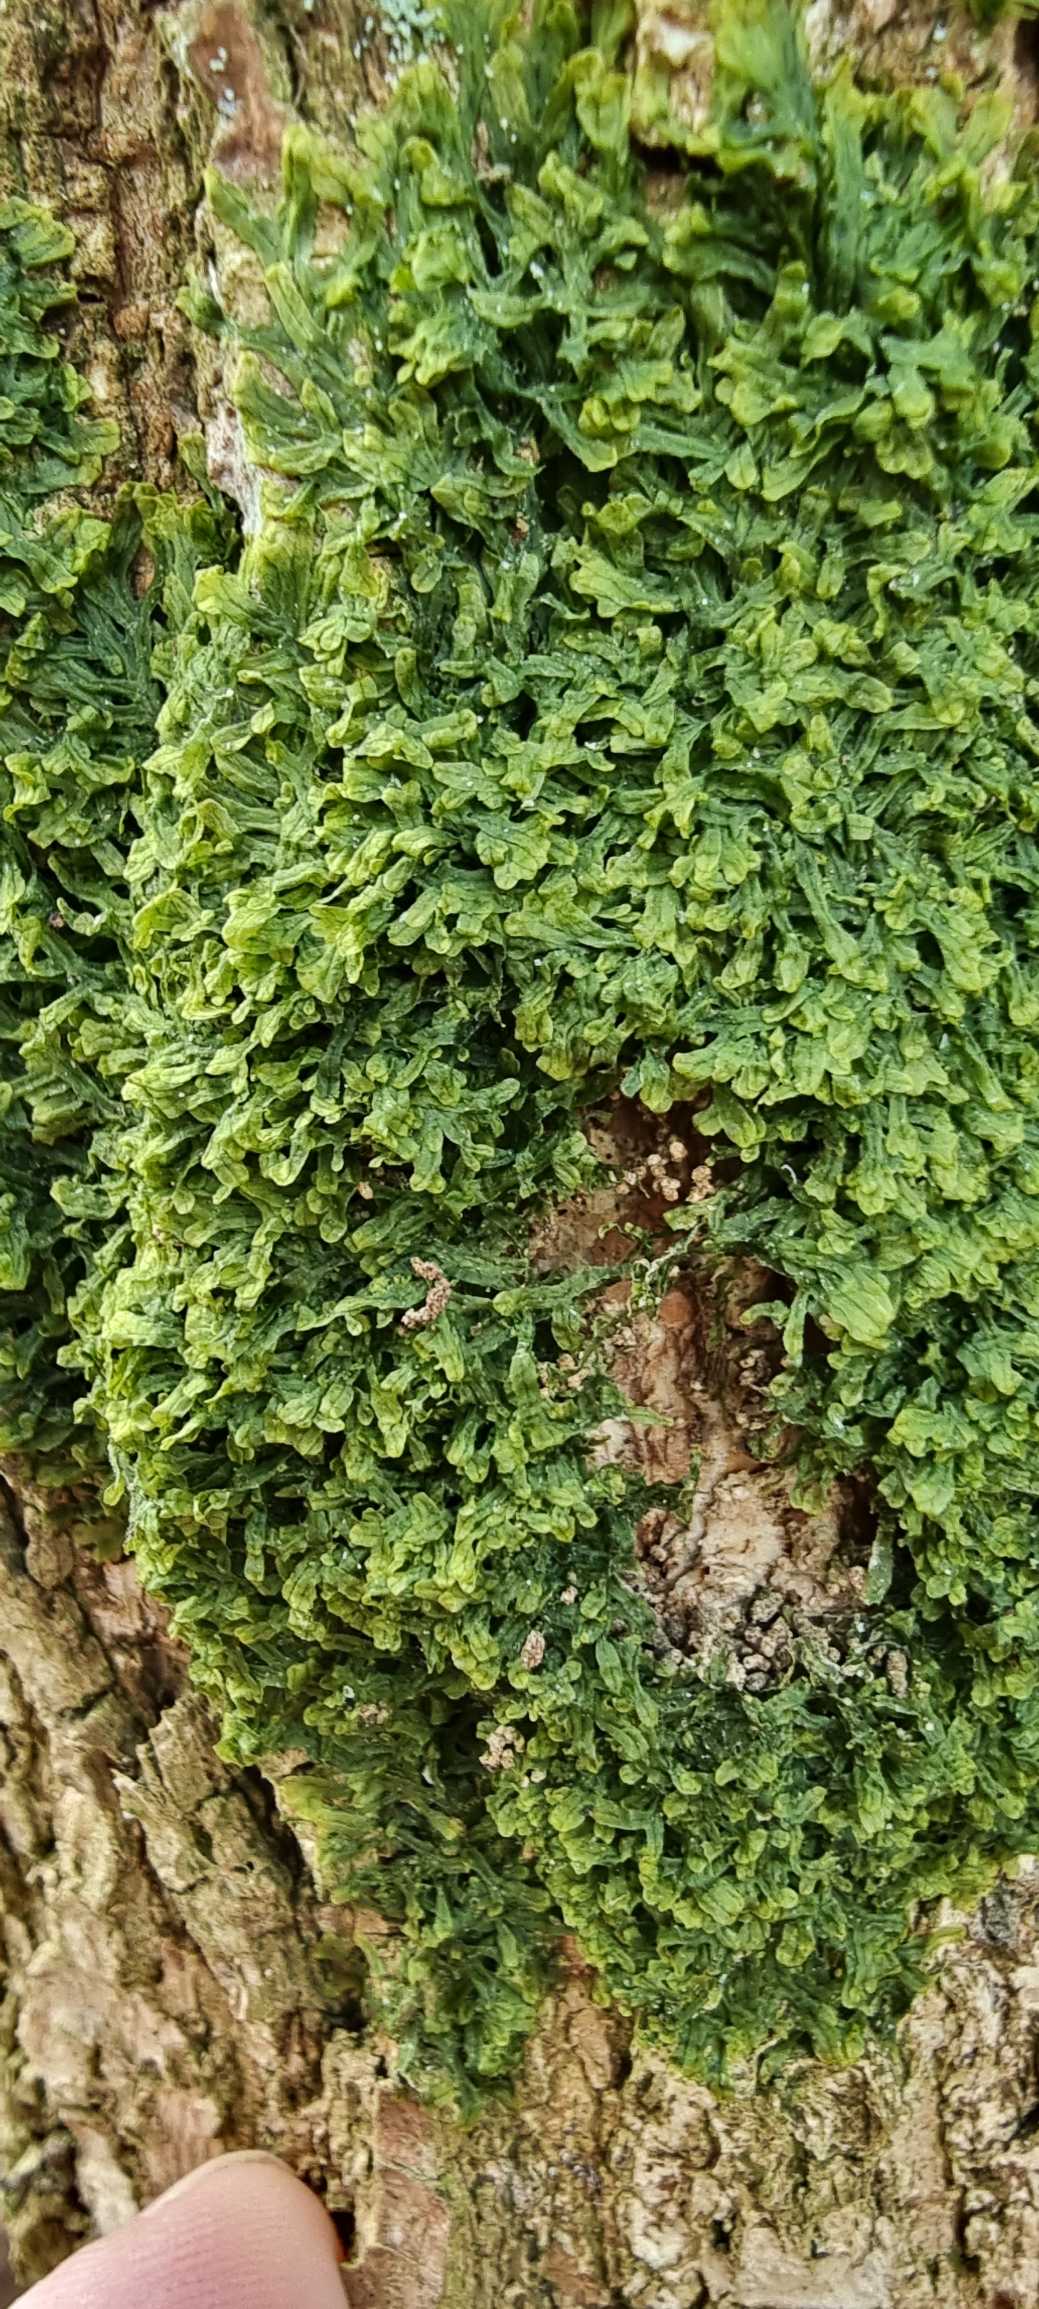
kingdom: Plantae
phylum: Marchantiophyta
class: Jungermanniopsida
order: Metzgeriales
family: Metzgeriaceae
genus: Metzgeria
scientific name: Metzgeria furcata
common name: Almindelig gaffelløv
